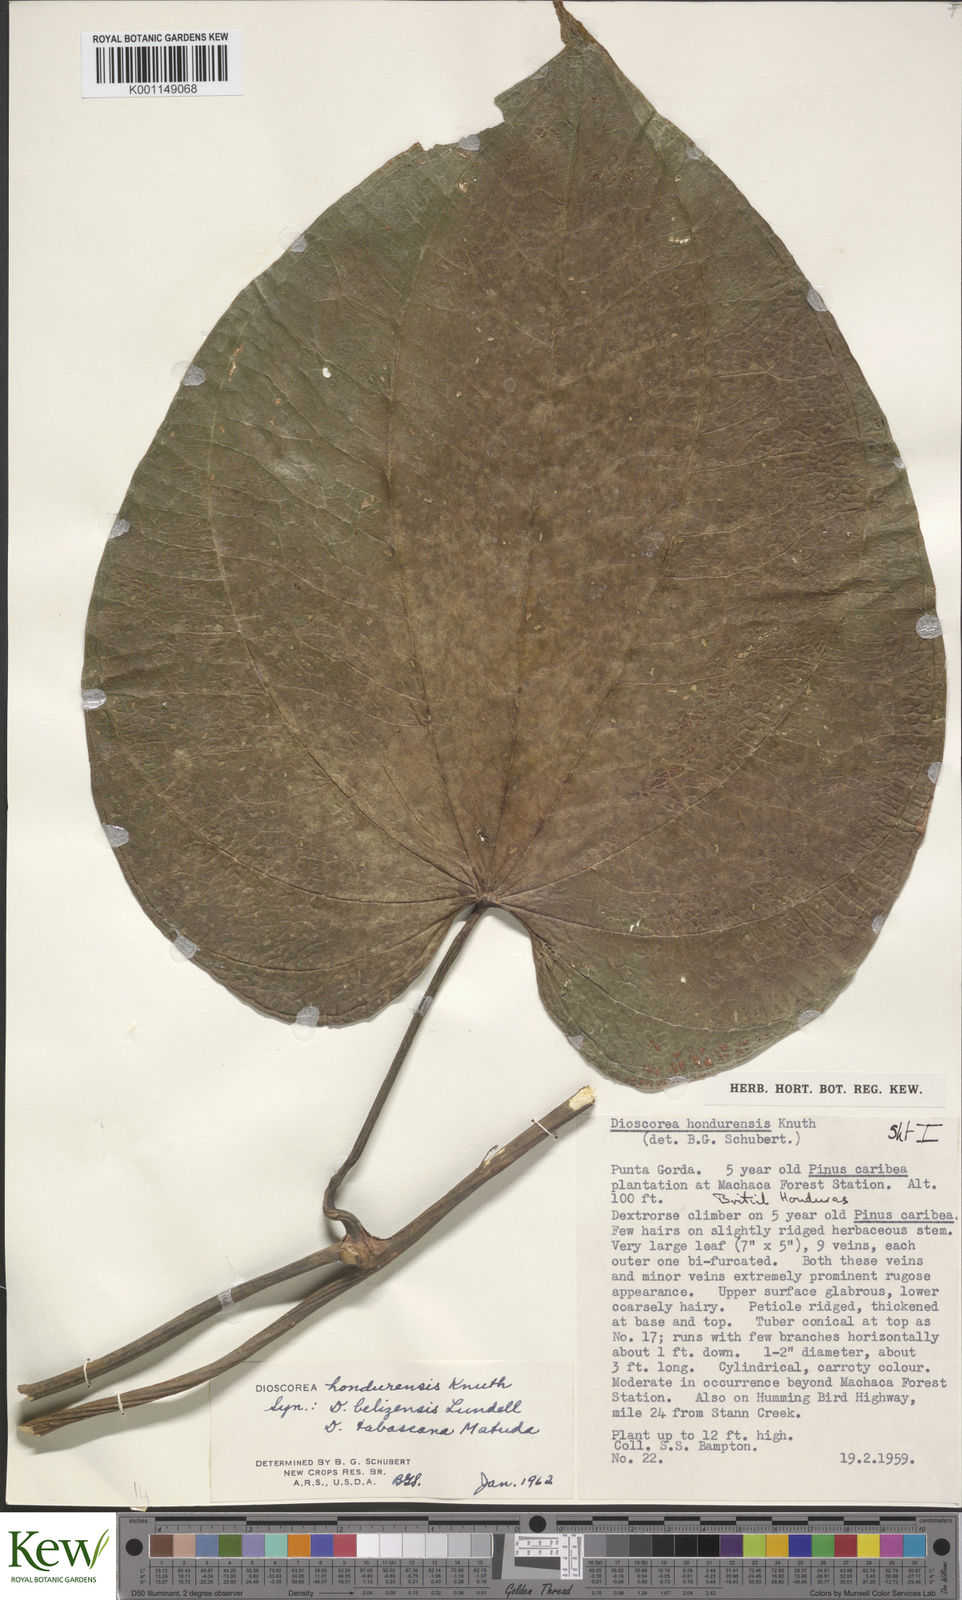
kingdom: Plantae
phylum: Tracheophyta
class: Liliopsida
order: Dioscoreales
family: Dioscoreaceae
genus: Dioscorea
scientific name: Dioscorea hondurensis
